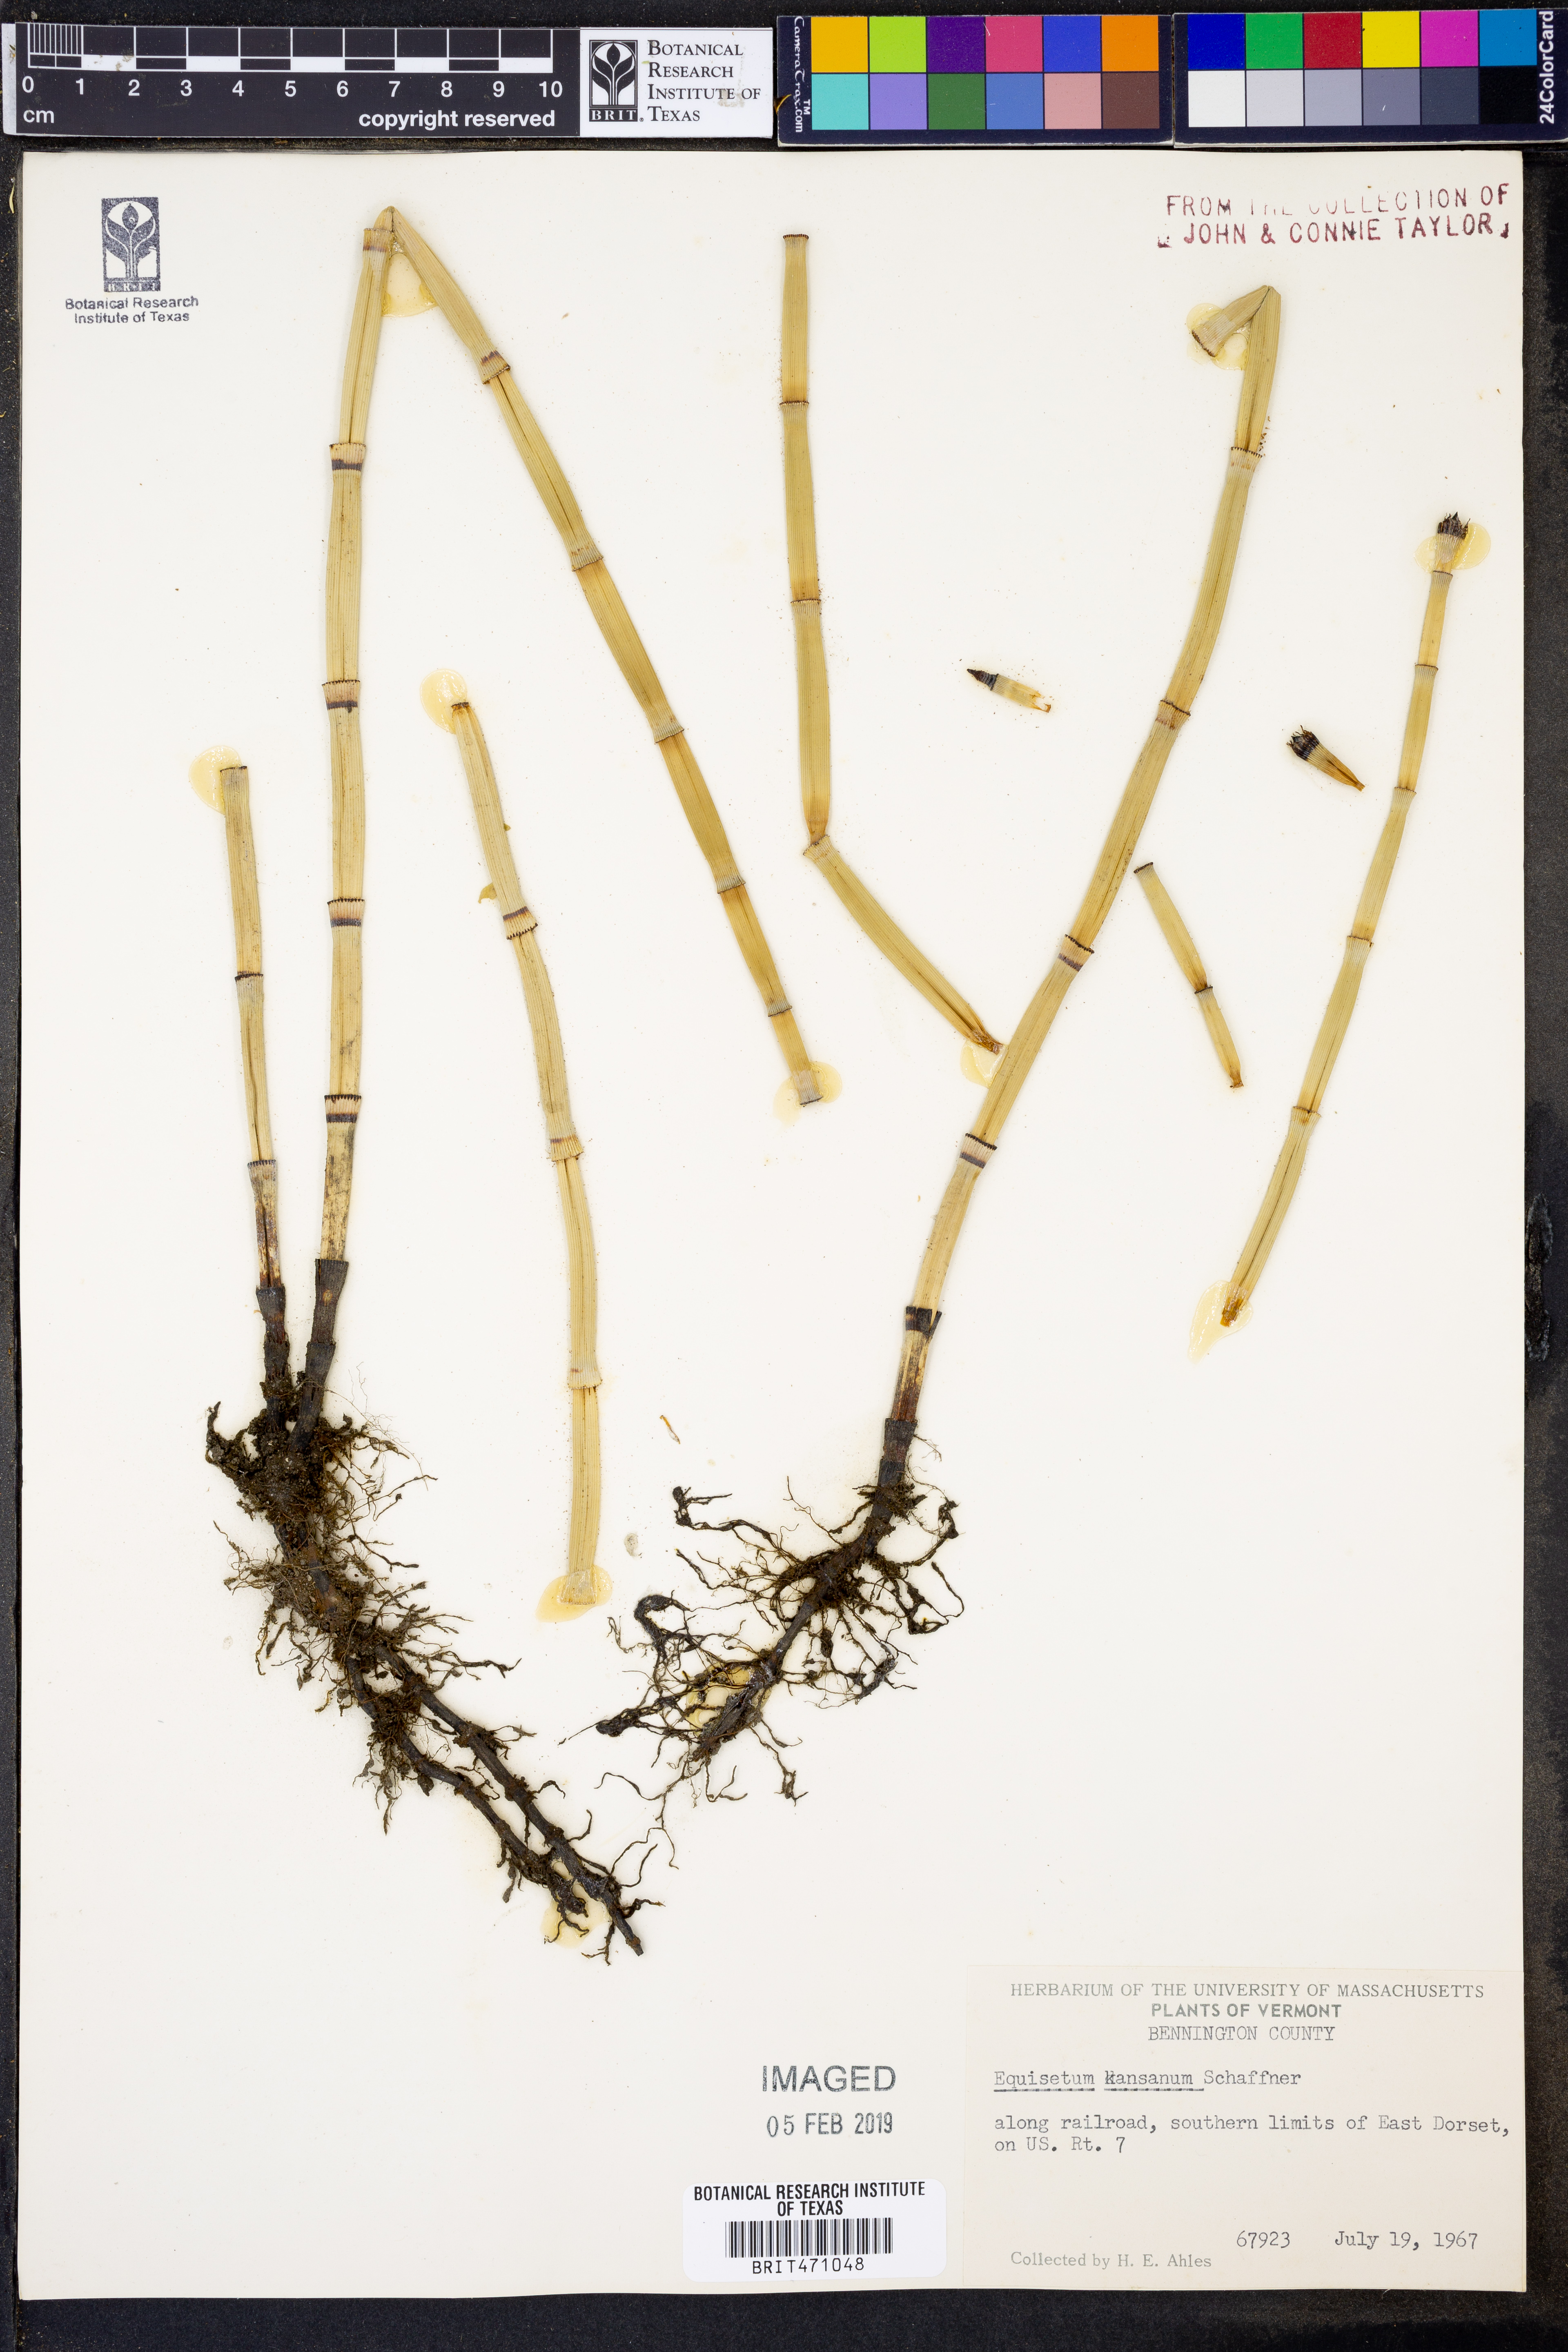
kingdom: Plantae
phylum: Tracheophyta
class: Polypodiopsida
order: Equisetales
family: Equisetaceae
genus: Equisetum
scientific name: Equisetum laevigatum
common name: Smooth scouring-rush
